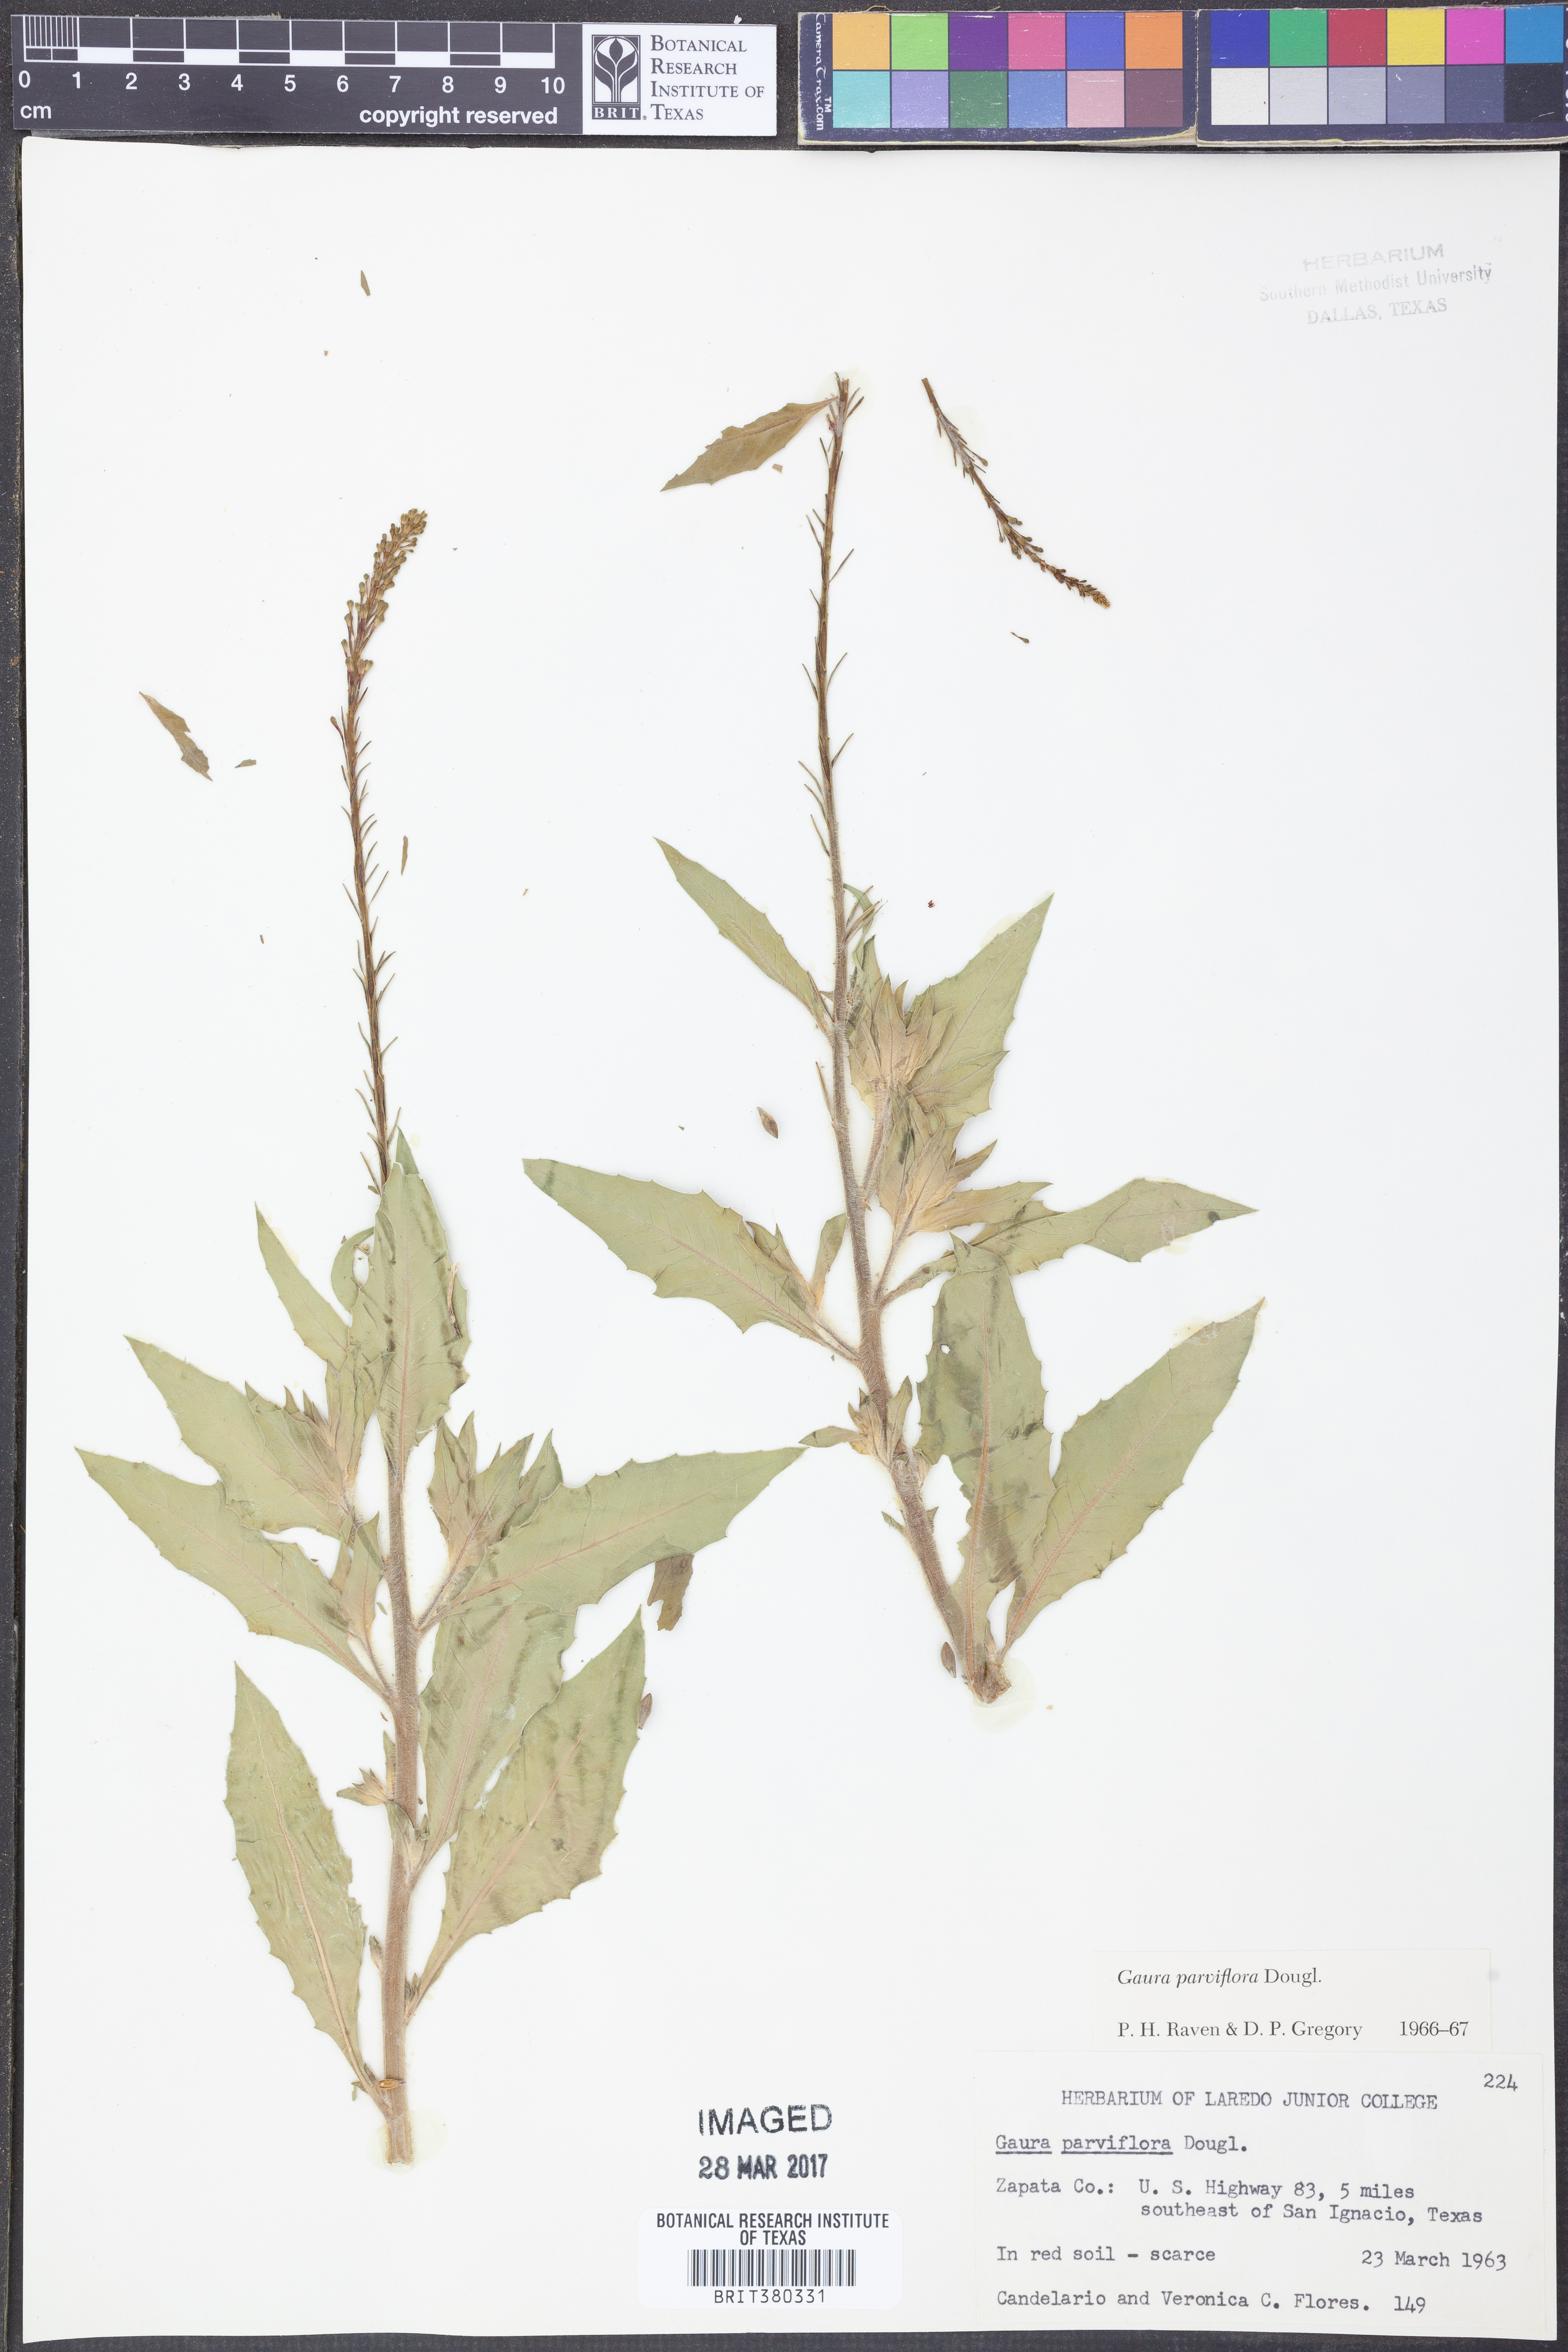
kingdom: Plantae
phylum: Tracheophyta
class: Magnoliopsida
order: Myrtales
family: Onagraceae
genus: Oenothera
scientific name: Oenothera curtiflora
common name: Velvetweed
